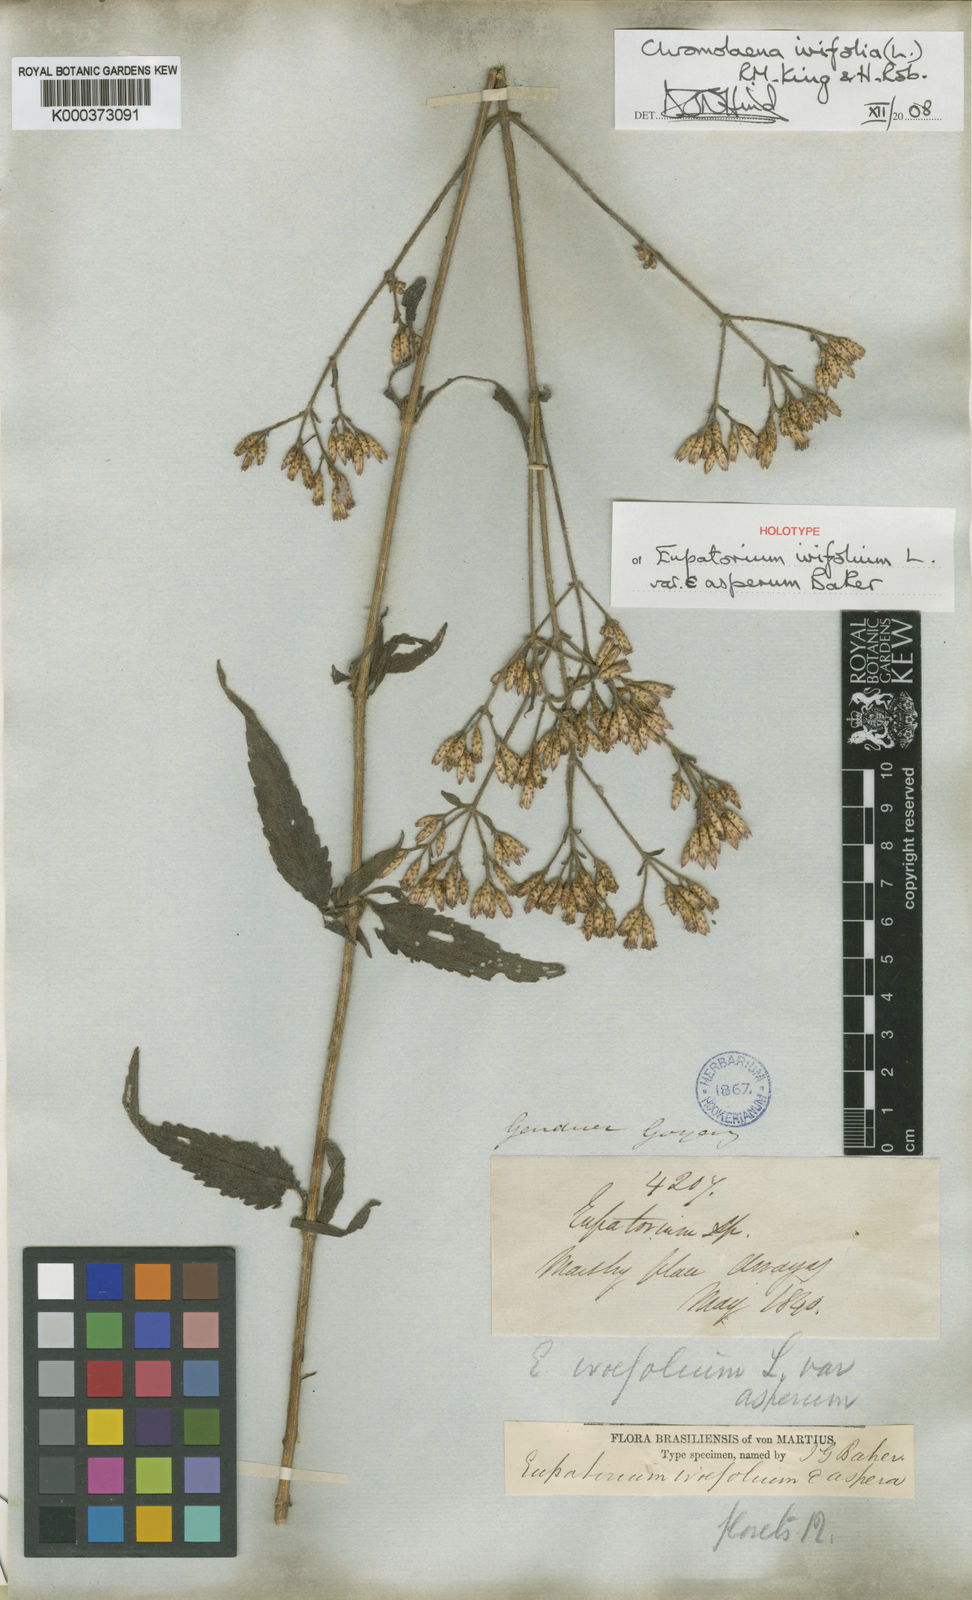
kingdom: Plantae
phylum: Tracheophyta
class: Magnoliopsida
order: Asterales
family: Asteraceae
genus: Chromolaena
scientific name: Chromolaena ivifolia
